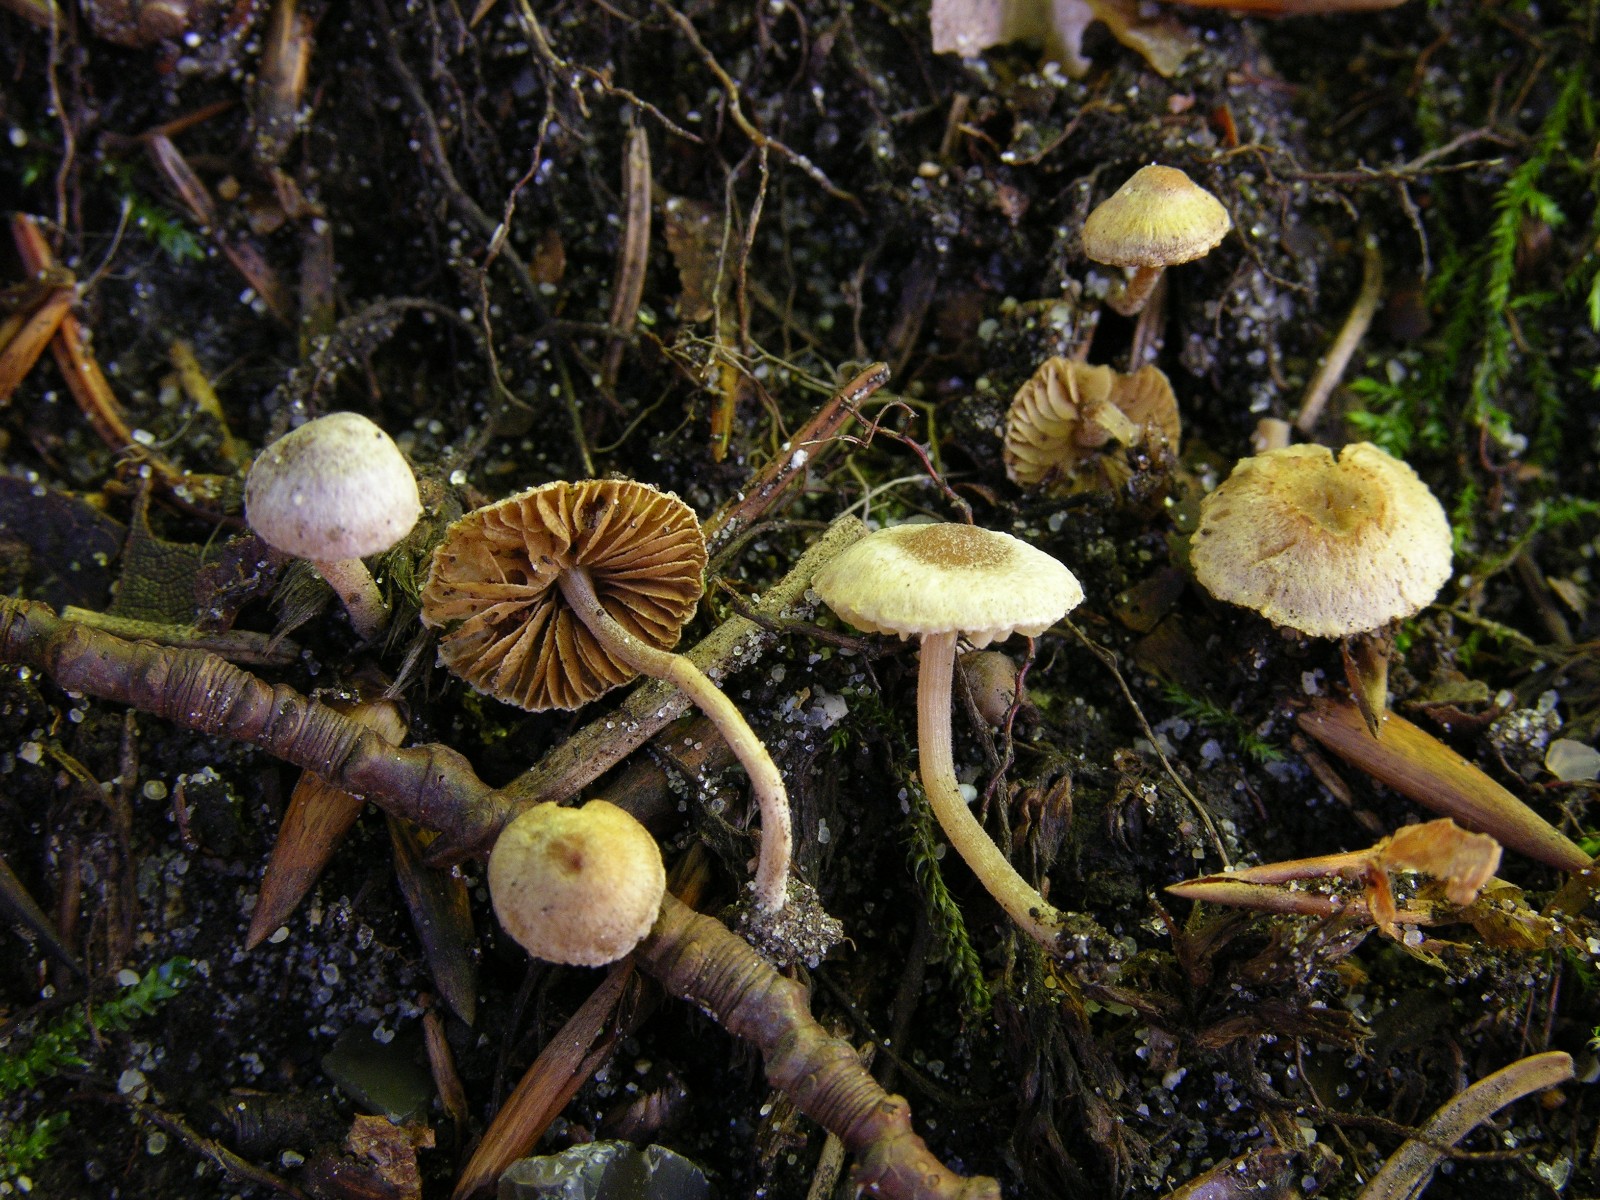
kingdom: Fungi
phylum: Basidiomycota
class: Agaricomycetes
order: Agaricales
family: Inocybaceae
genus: Inocybe
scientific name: Inocybe petiginosa
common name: liden trævlhat
